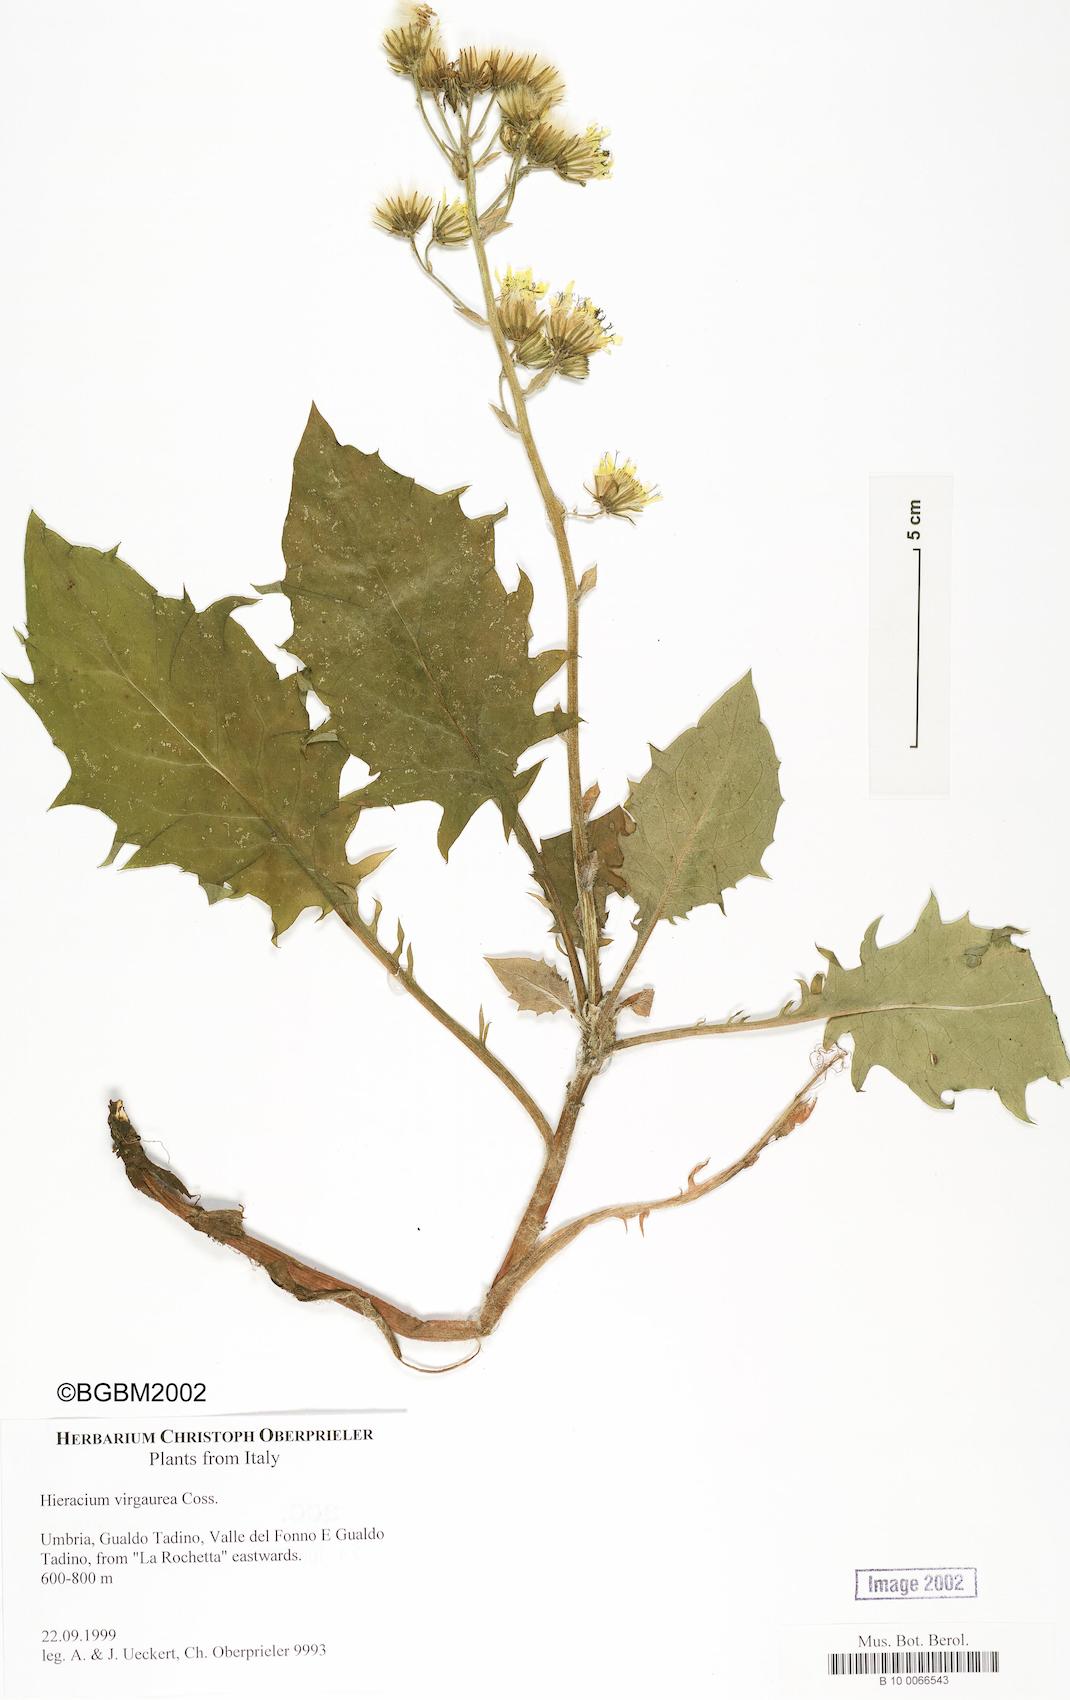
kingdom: Plantae
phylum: Tracheophyta
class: Magnoliopsida
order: Asterales
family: Asteraceae
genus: Hieracium
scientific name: Hieracium racemosum
